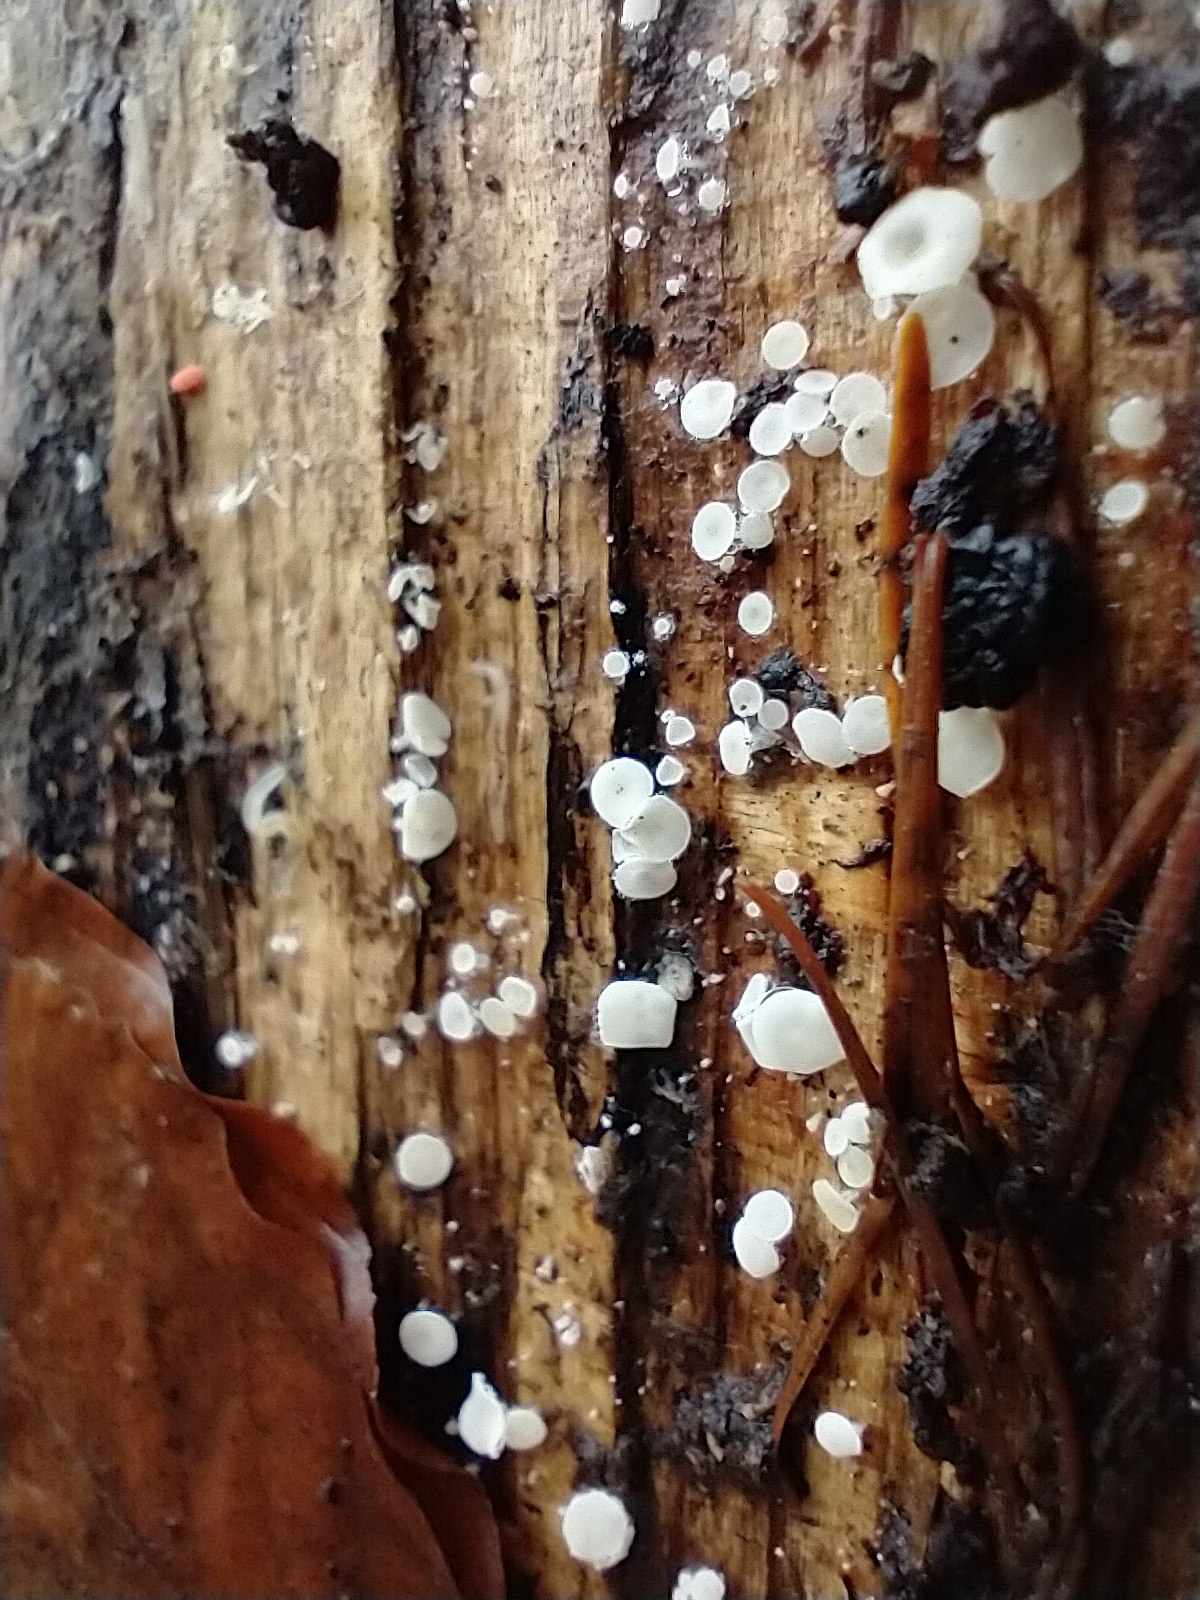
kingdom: Fungi
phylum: Ascomycota
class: Leotiomycetes
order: Helotiales
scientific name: Helotiales
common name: stilkskiveordenen
